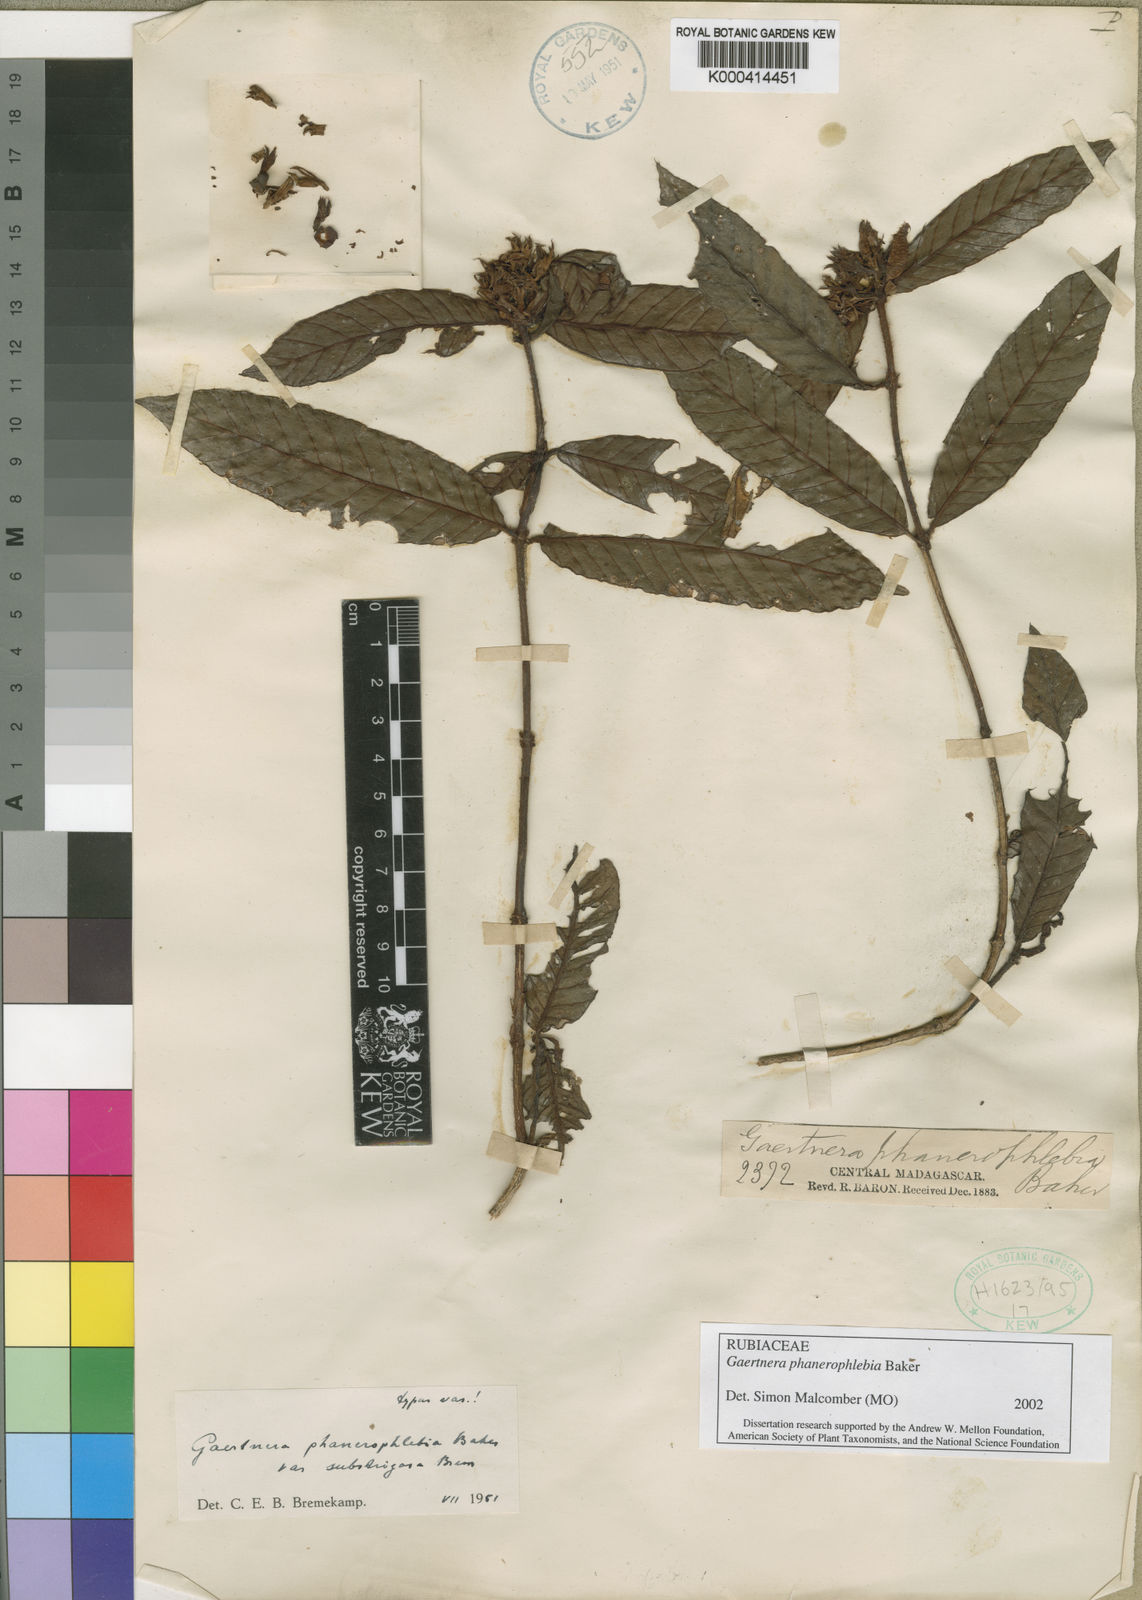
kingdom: Plantae
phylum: Tracheophyta
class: Magnoliopsida
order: Gentianales
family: Rubiaceae
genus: Gaertnera
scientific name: Gaertnera phanerophlebia
